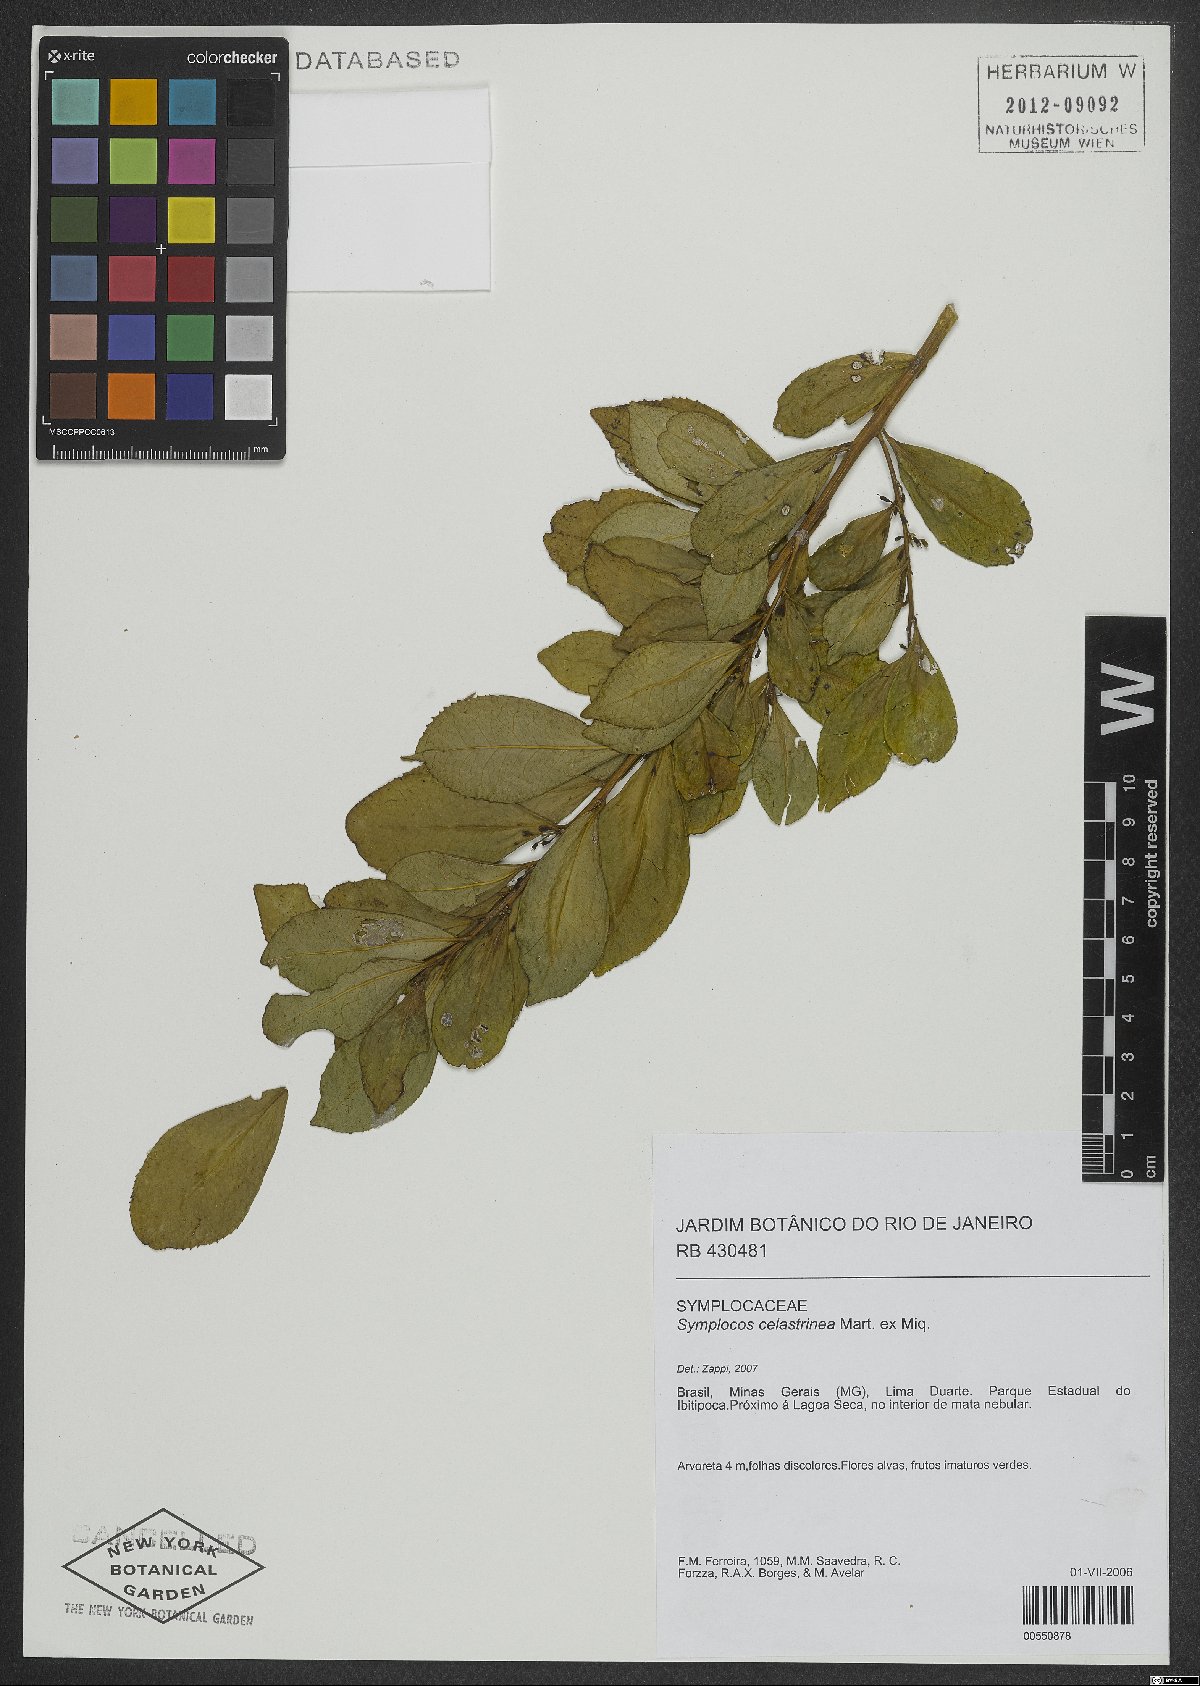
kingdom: Plantae
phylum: Tracheophyta
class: Magnoliopsida
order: Ericales
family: Symplocaceae
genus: Symplocos
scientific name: Symplocos celastrinea
